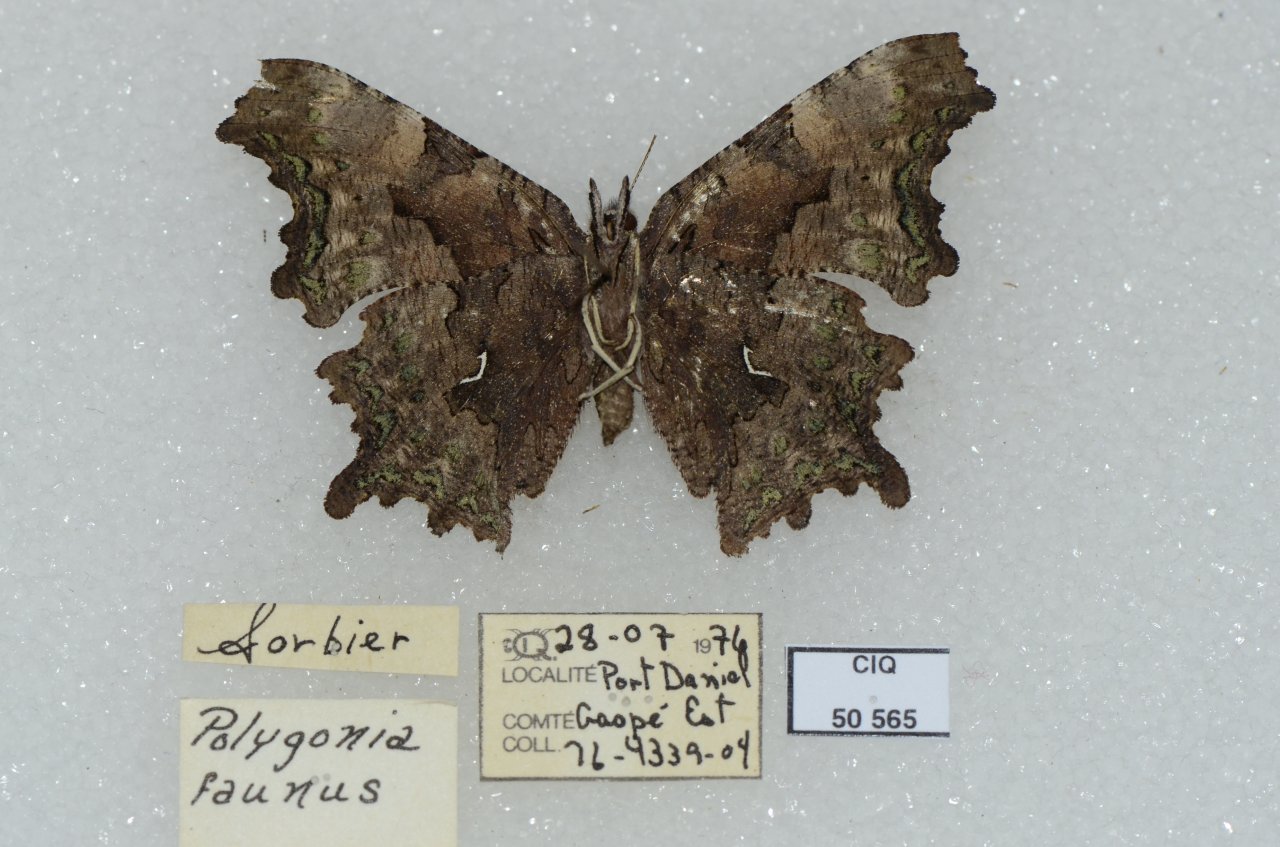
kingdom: Animalia
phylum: Arthropoda
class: Insecta
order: Lepidoptera
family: Nymphalidae
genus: Polygonia
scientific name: Polygonia faunus
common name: Green Comma
